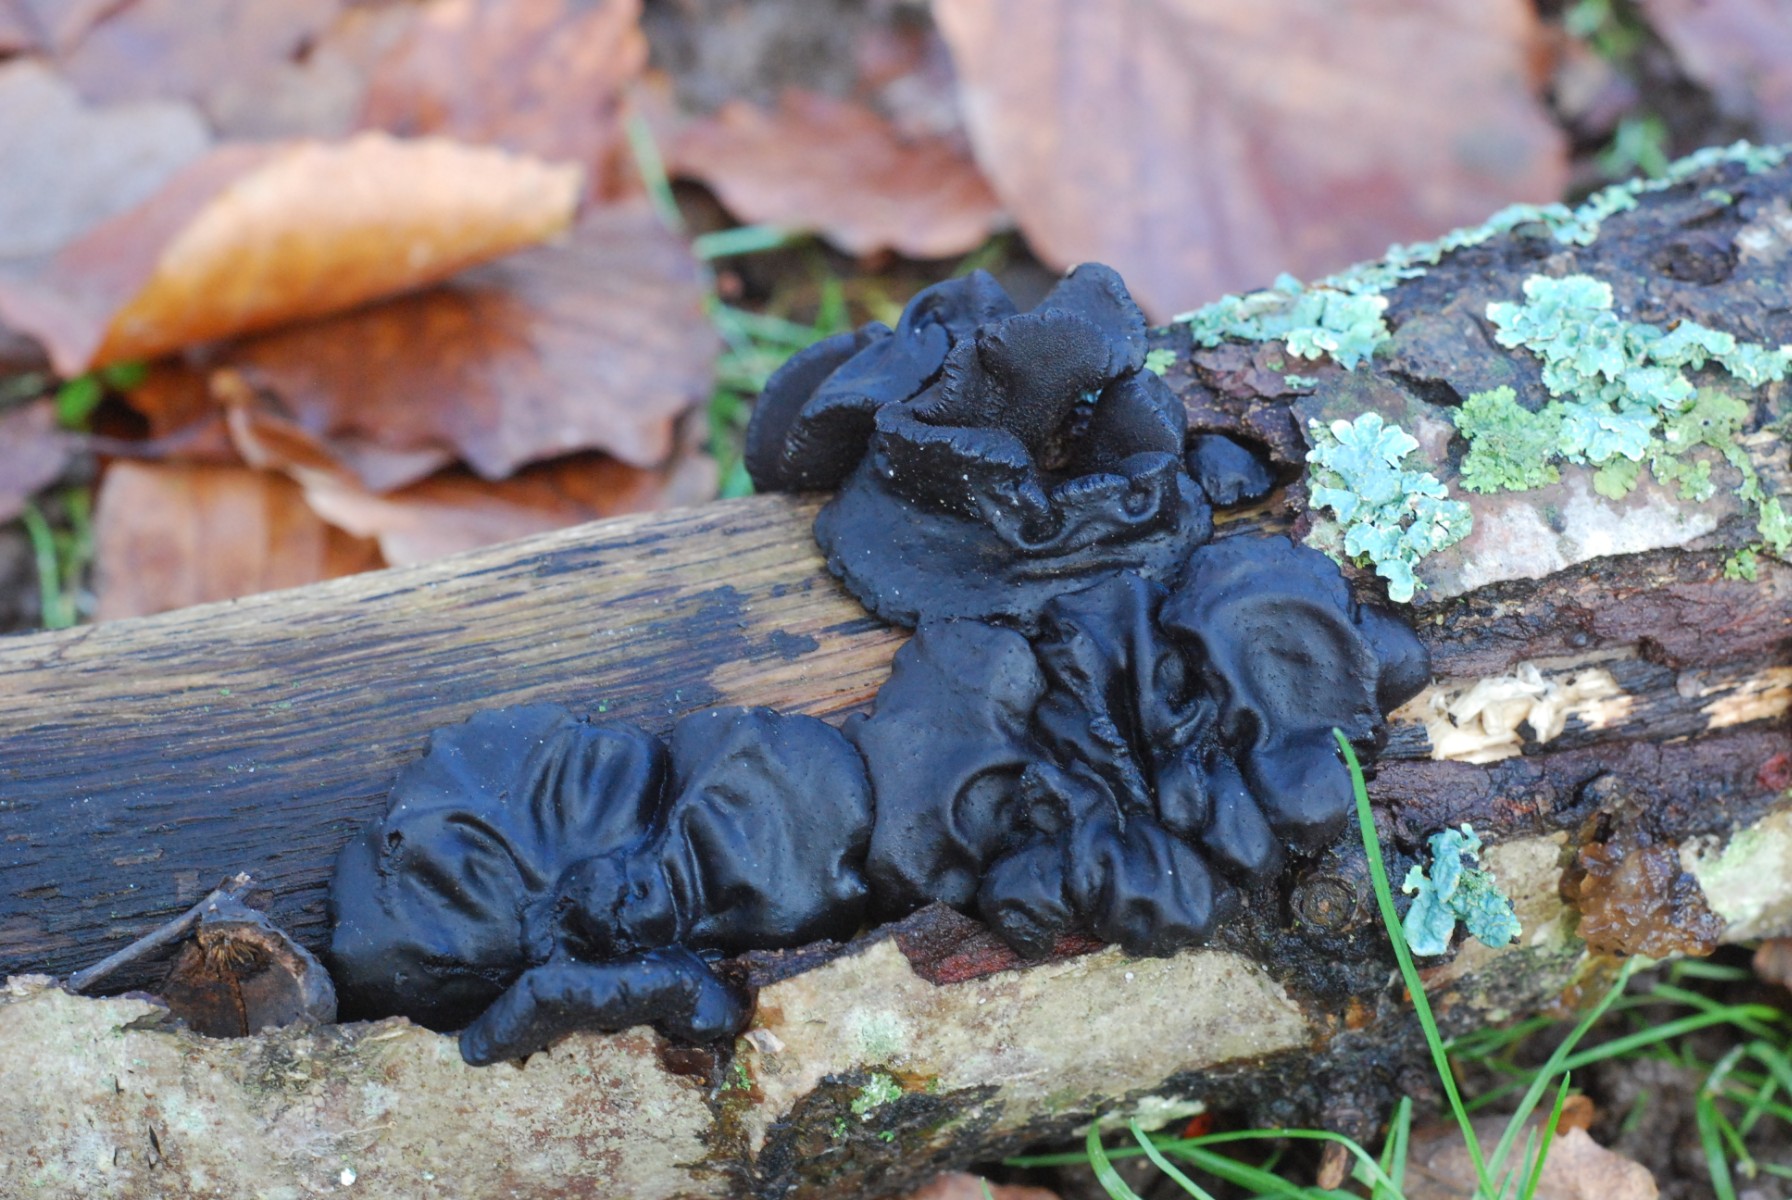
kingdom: Fungi
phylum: Basidiomycota
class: Agaricomycetes
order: Auriculariales
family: Auriculariaceae
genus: Exidia
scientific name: Exidia glandulosa
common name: ege-bævretop
